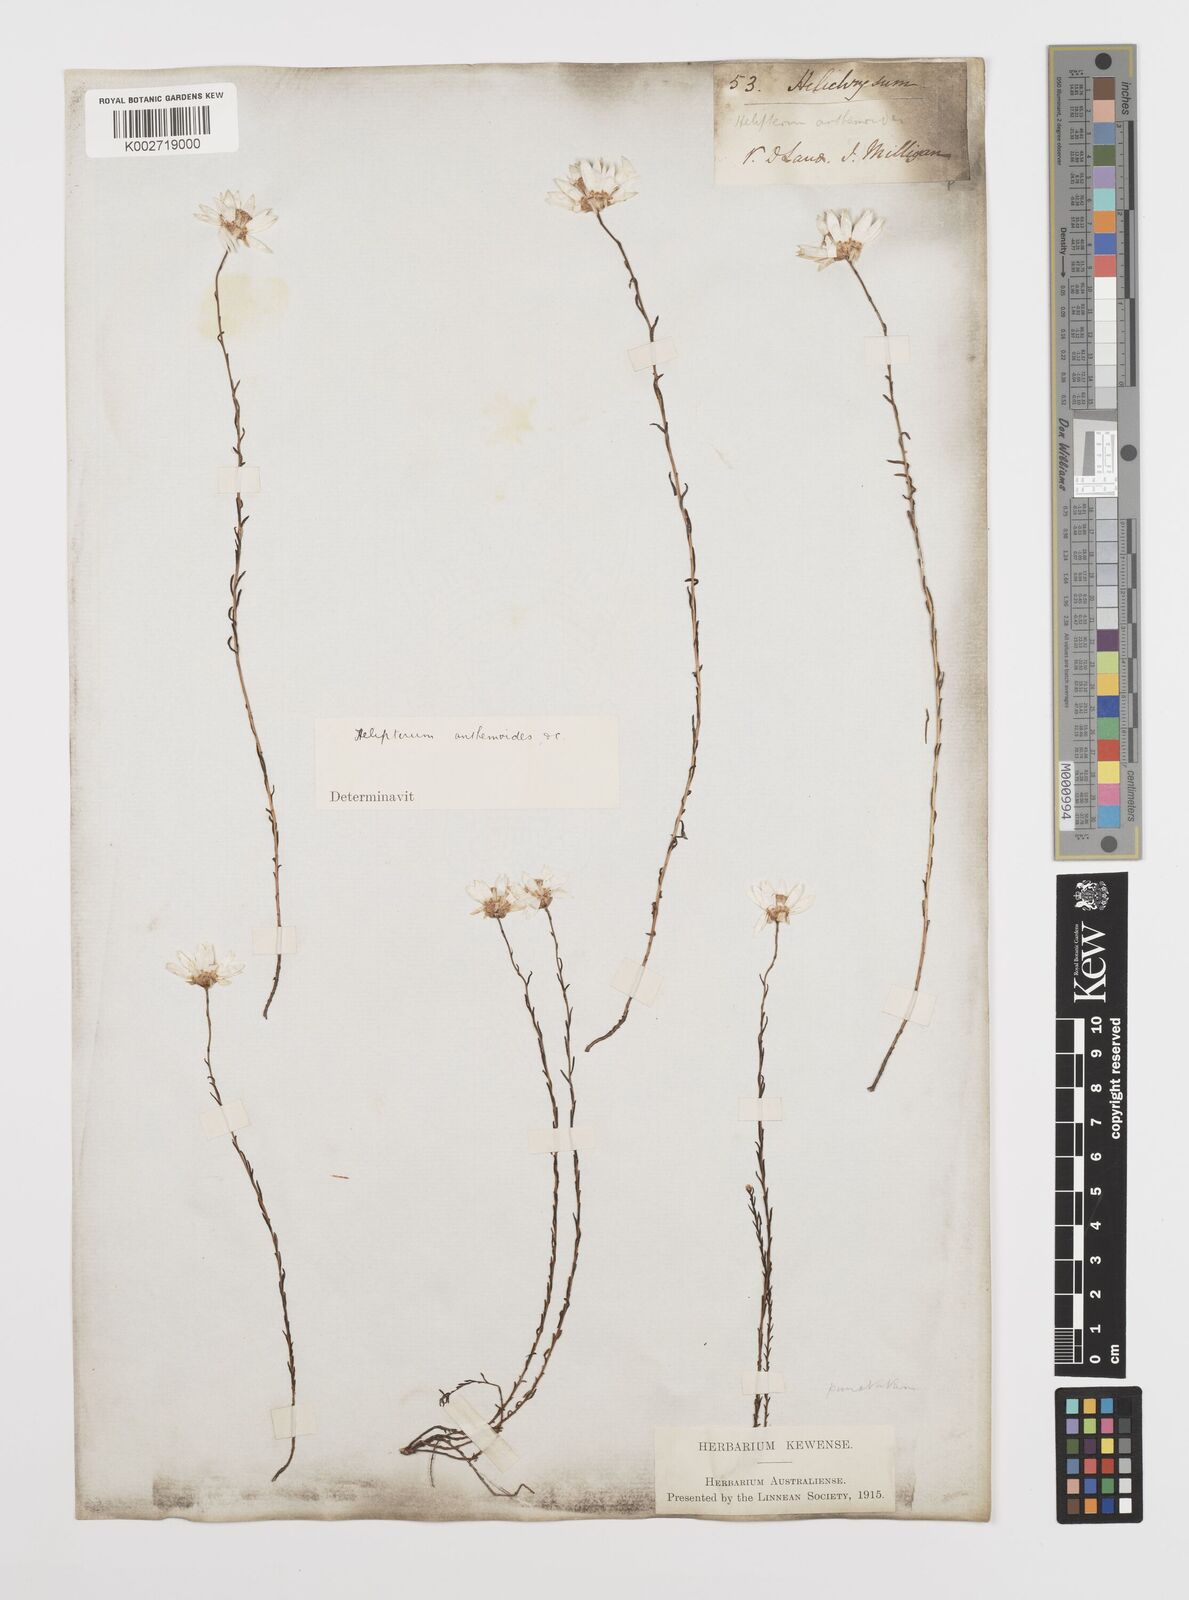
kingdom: Plantae
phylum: Tracheophyta
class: Magnoliopsida
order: Asterales
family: Asteraceae
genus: Rhodanthe
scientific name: Rhodanthe anthemoides
